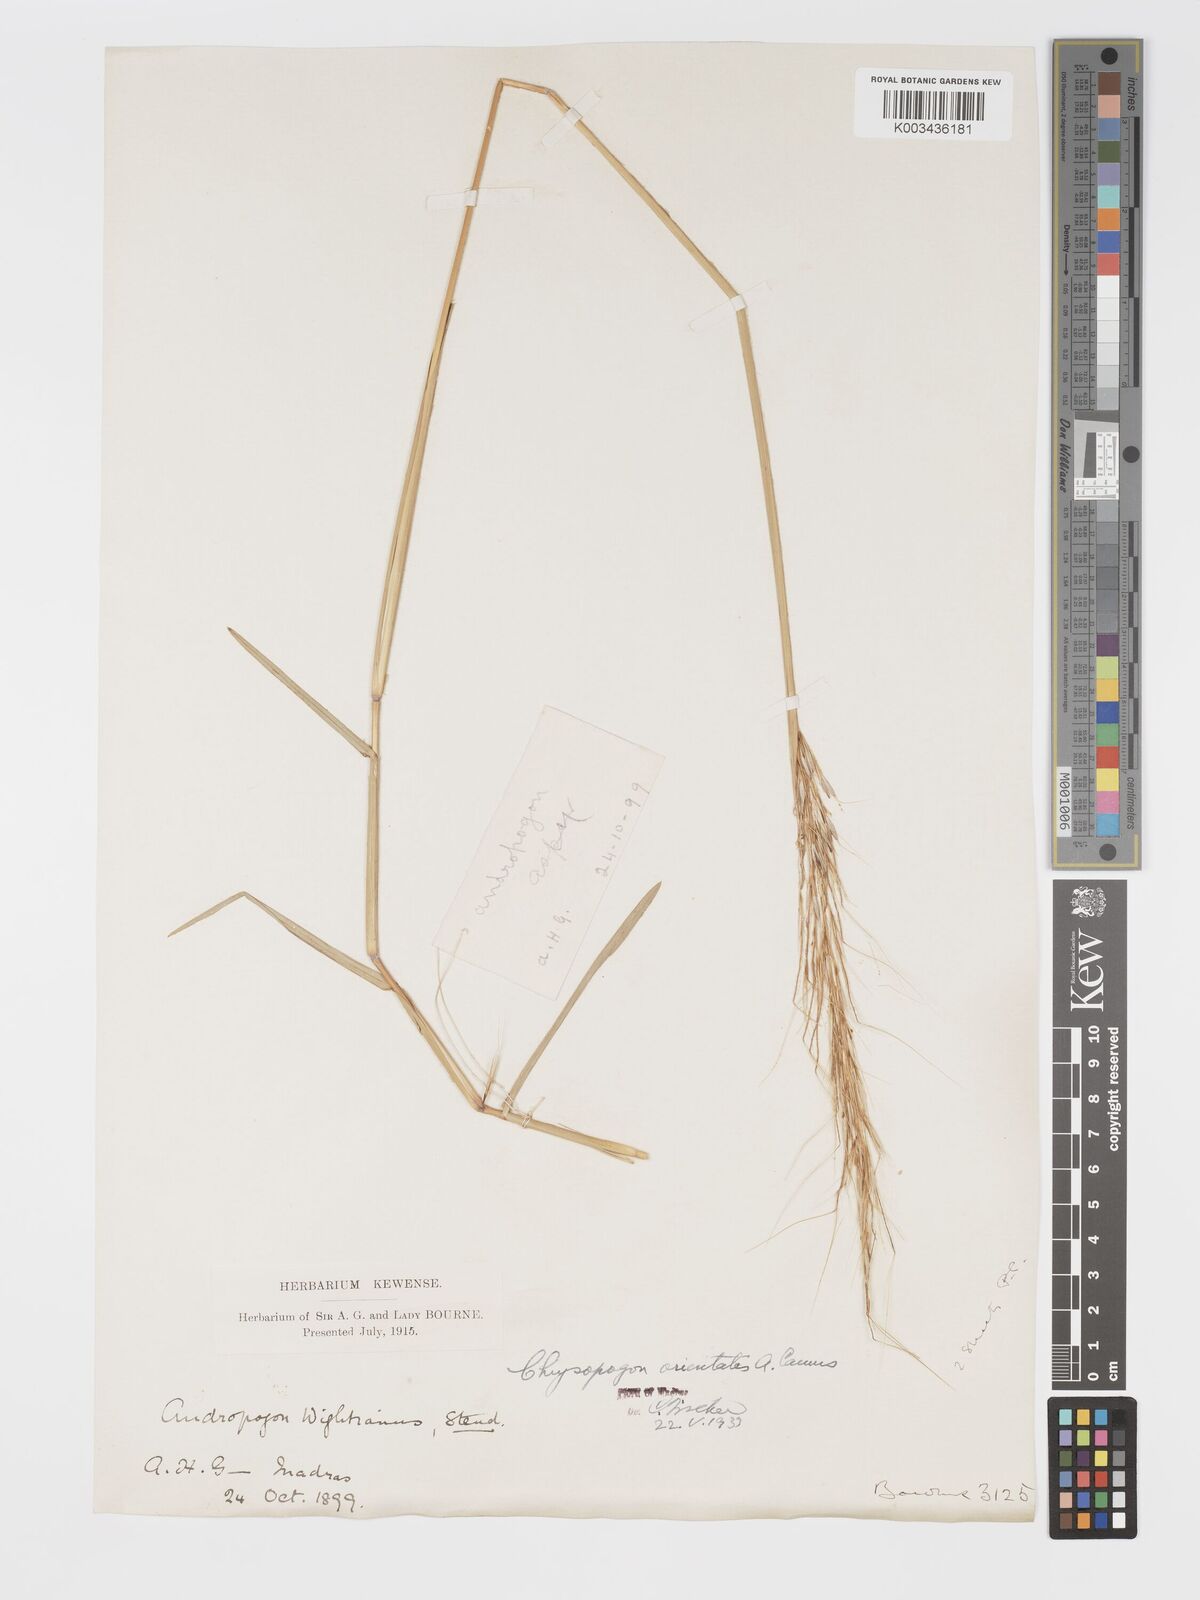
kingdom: Plantae
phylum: Tracheophyta
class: Liliopsida
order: Poales
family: Poaceae
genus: Chrysopogon
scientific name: Chrysopogon orientalis
